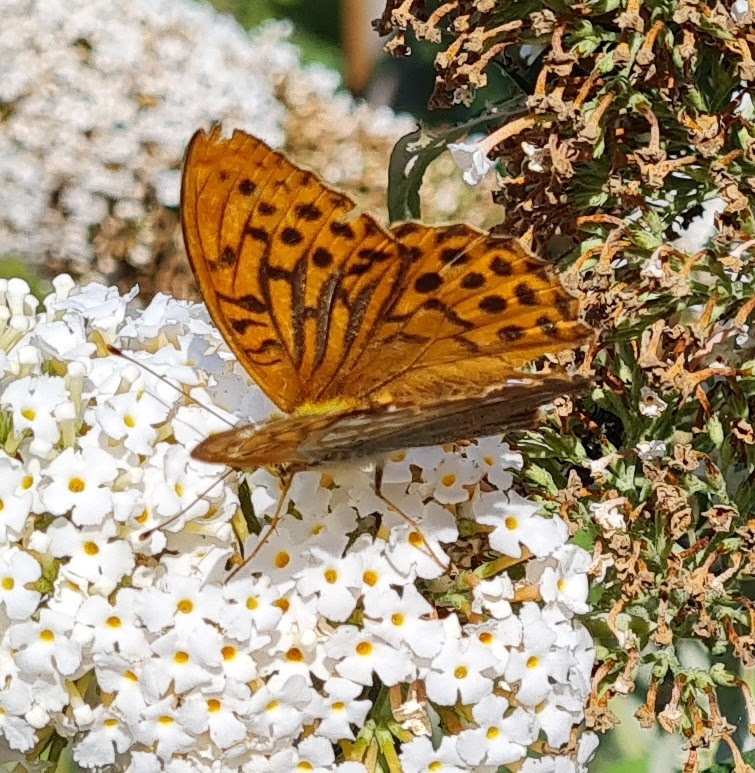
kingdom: Animalia
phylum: Arthropoda
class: Insecta
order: Lepidoptera
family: Nymphalidae
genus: Argynnis
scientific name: Argynnis paphia
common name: Kejserkåbe
